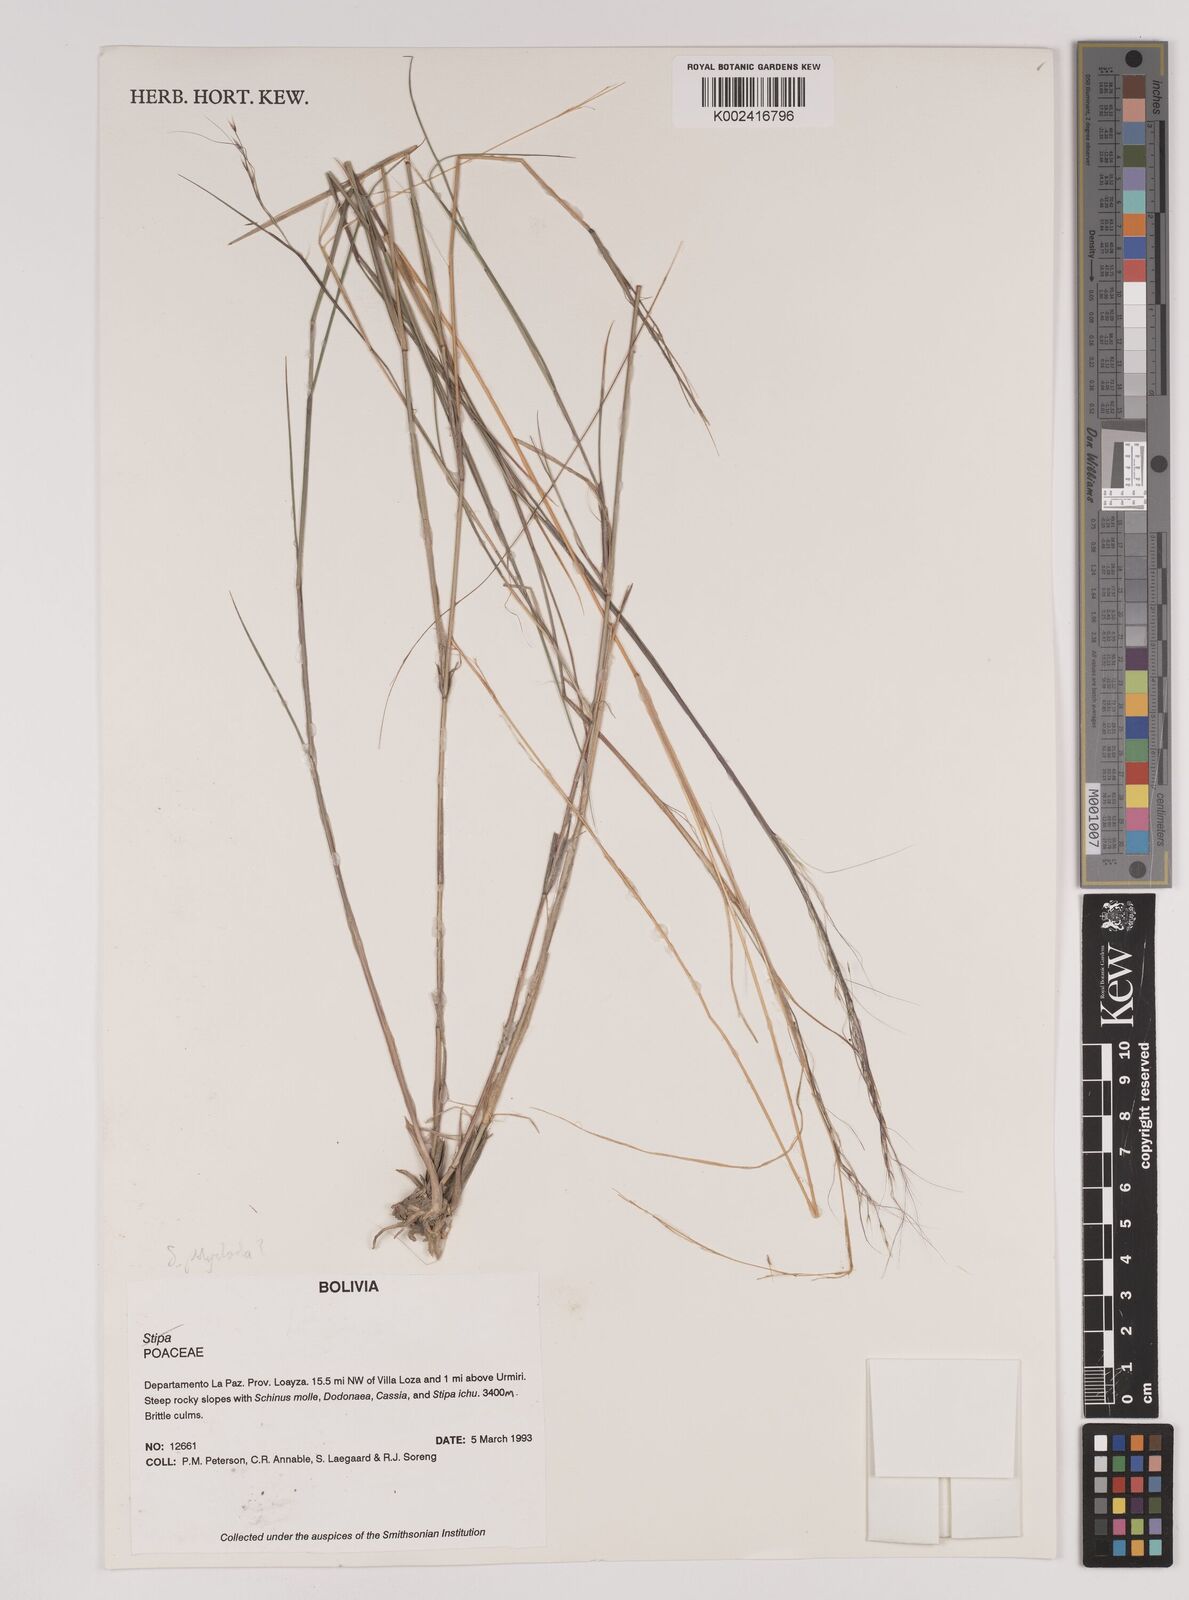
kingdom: Plantae
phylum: Tracheophyta
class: Liliopsida
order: Poales
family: Poaceae
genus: Stipa
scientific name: Stipa illimanica
